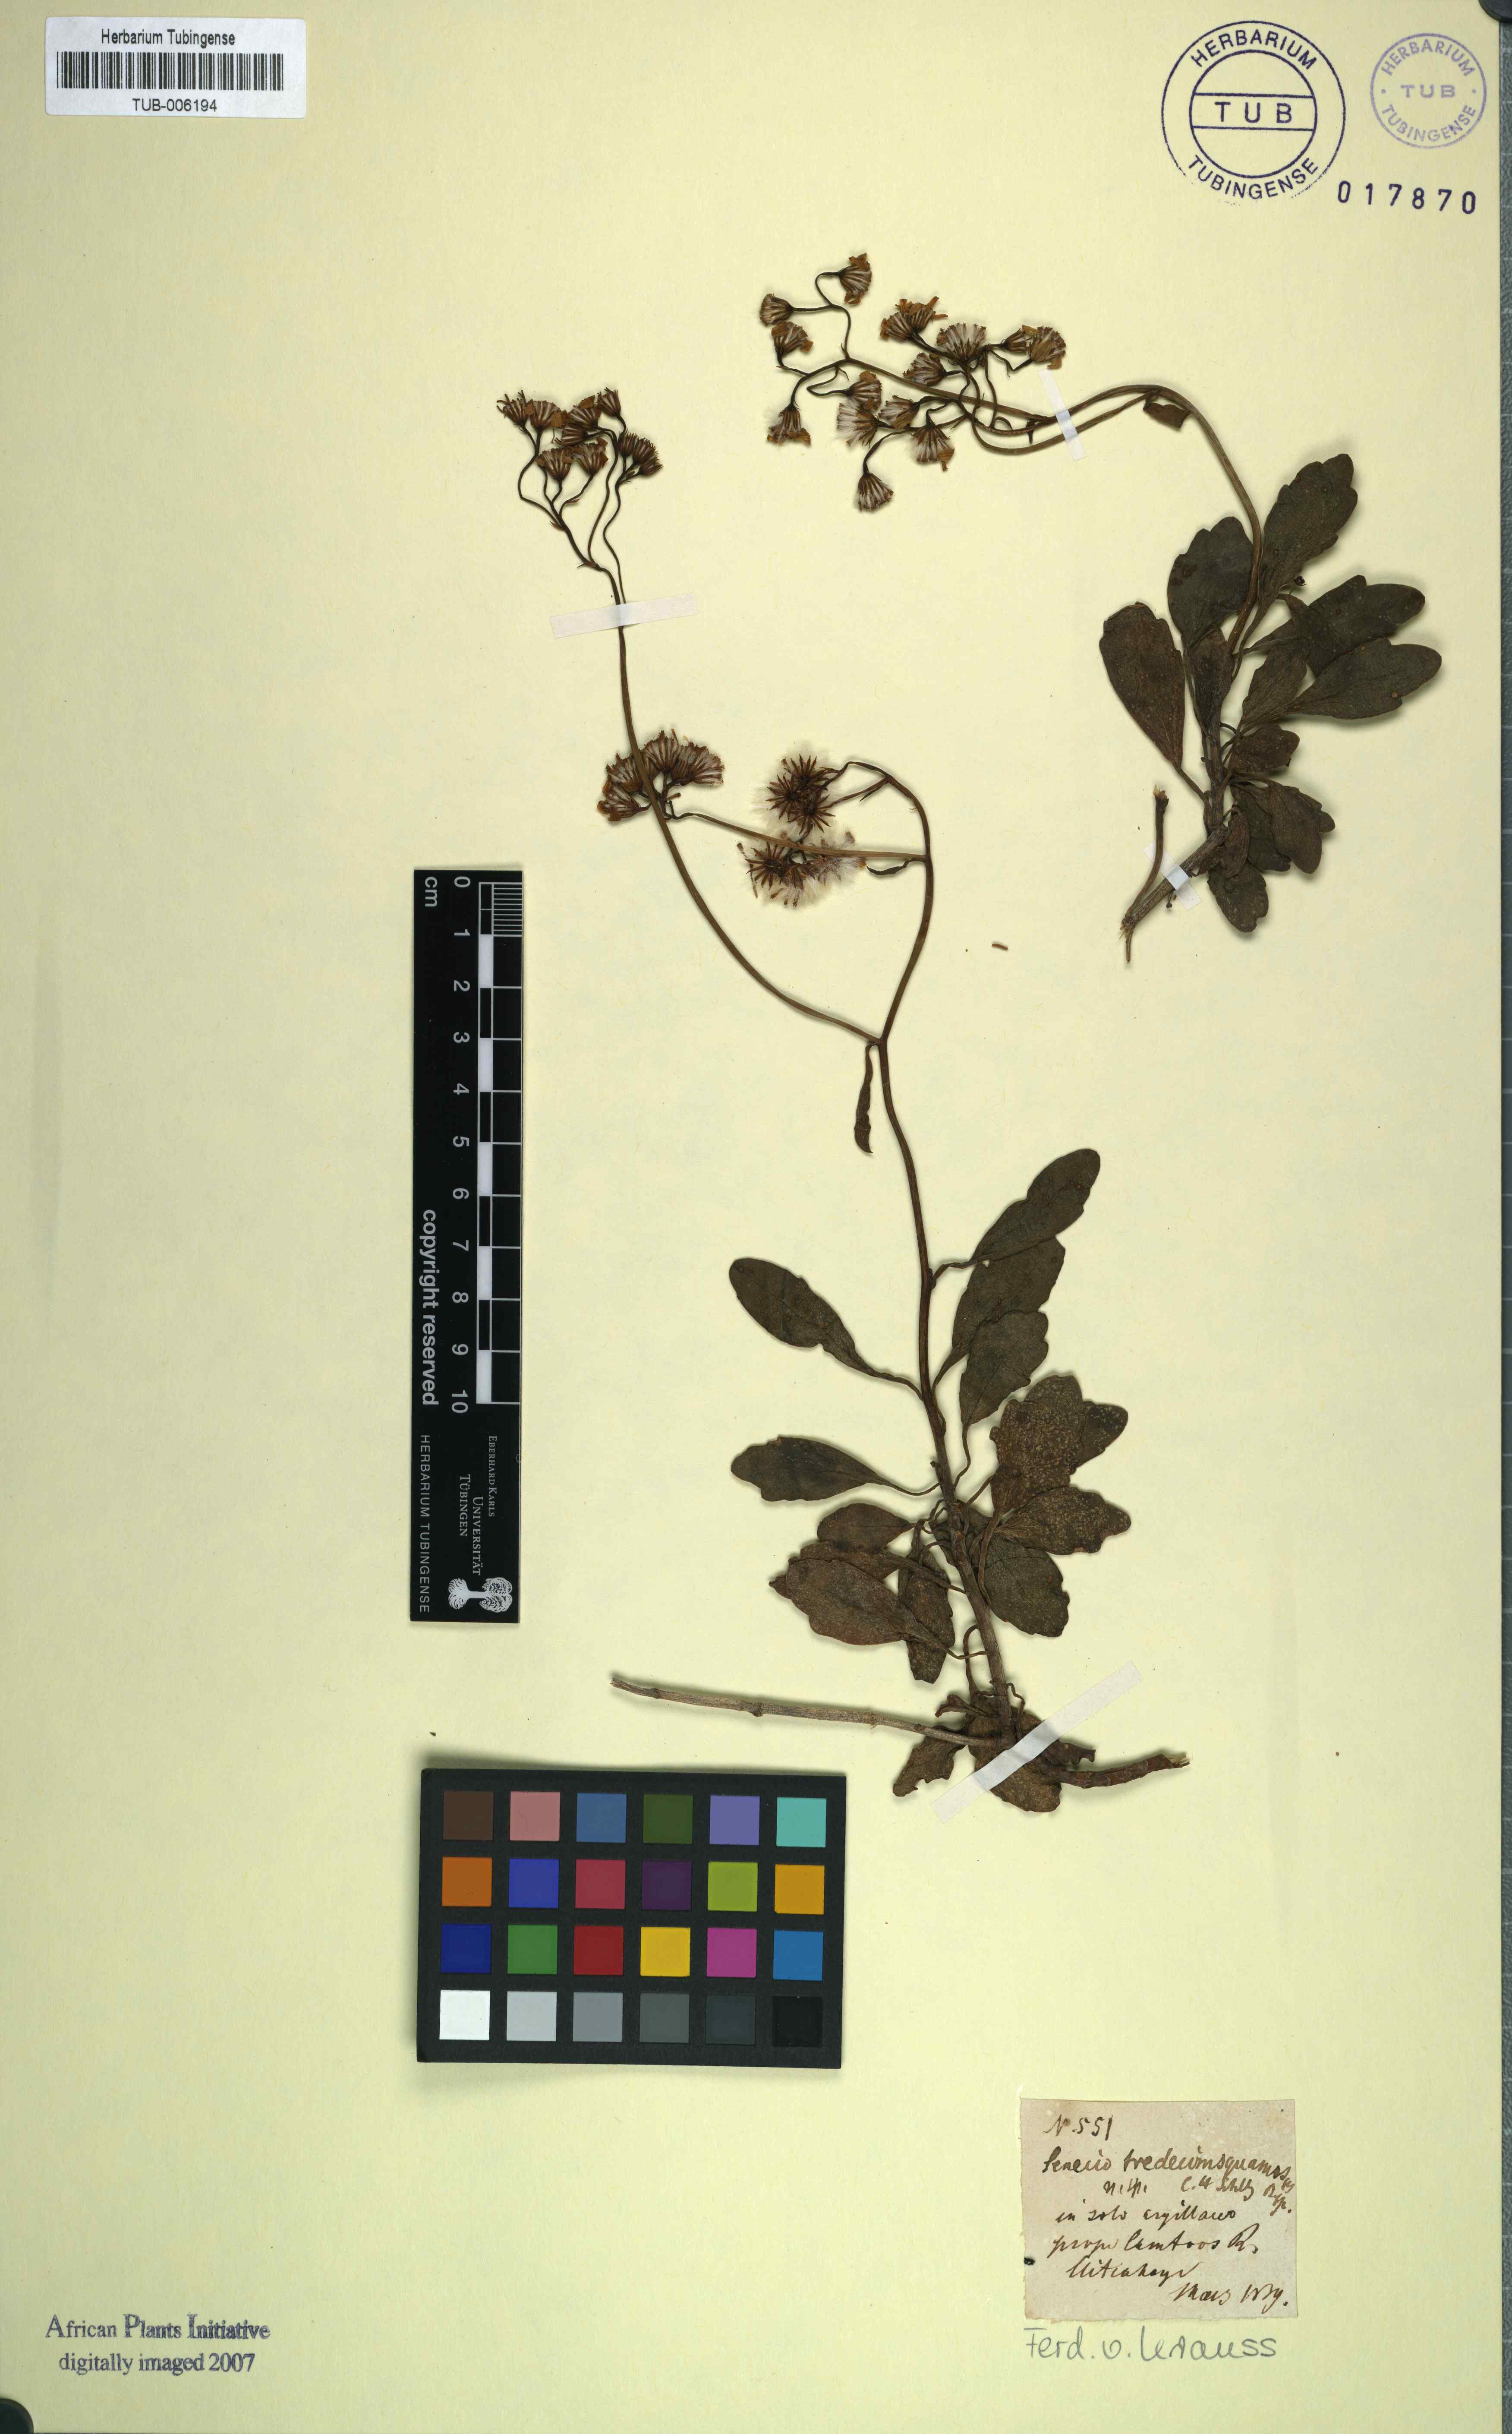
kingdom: Plantae
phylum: Tracheophyta
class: Magnoliopsida
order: Asterales
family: Asteraceae
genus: Senecio
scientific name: Senecio angulatus
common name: Climbing groundsel
